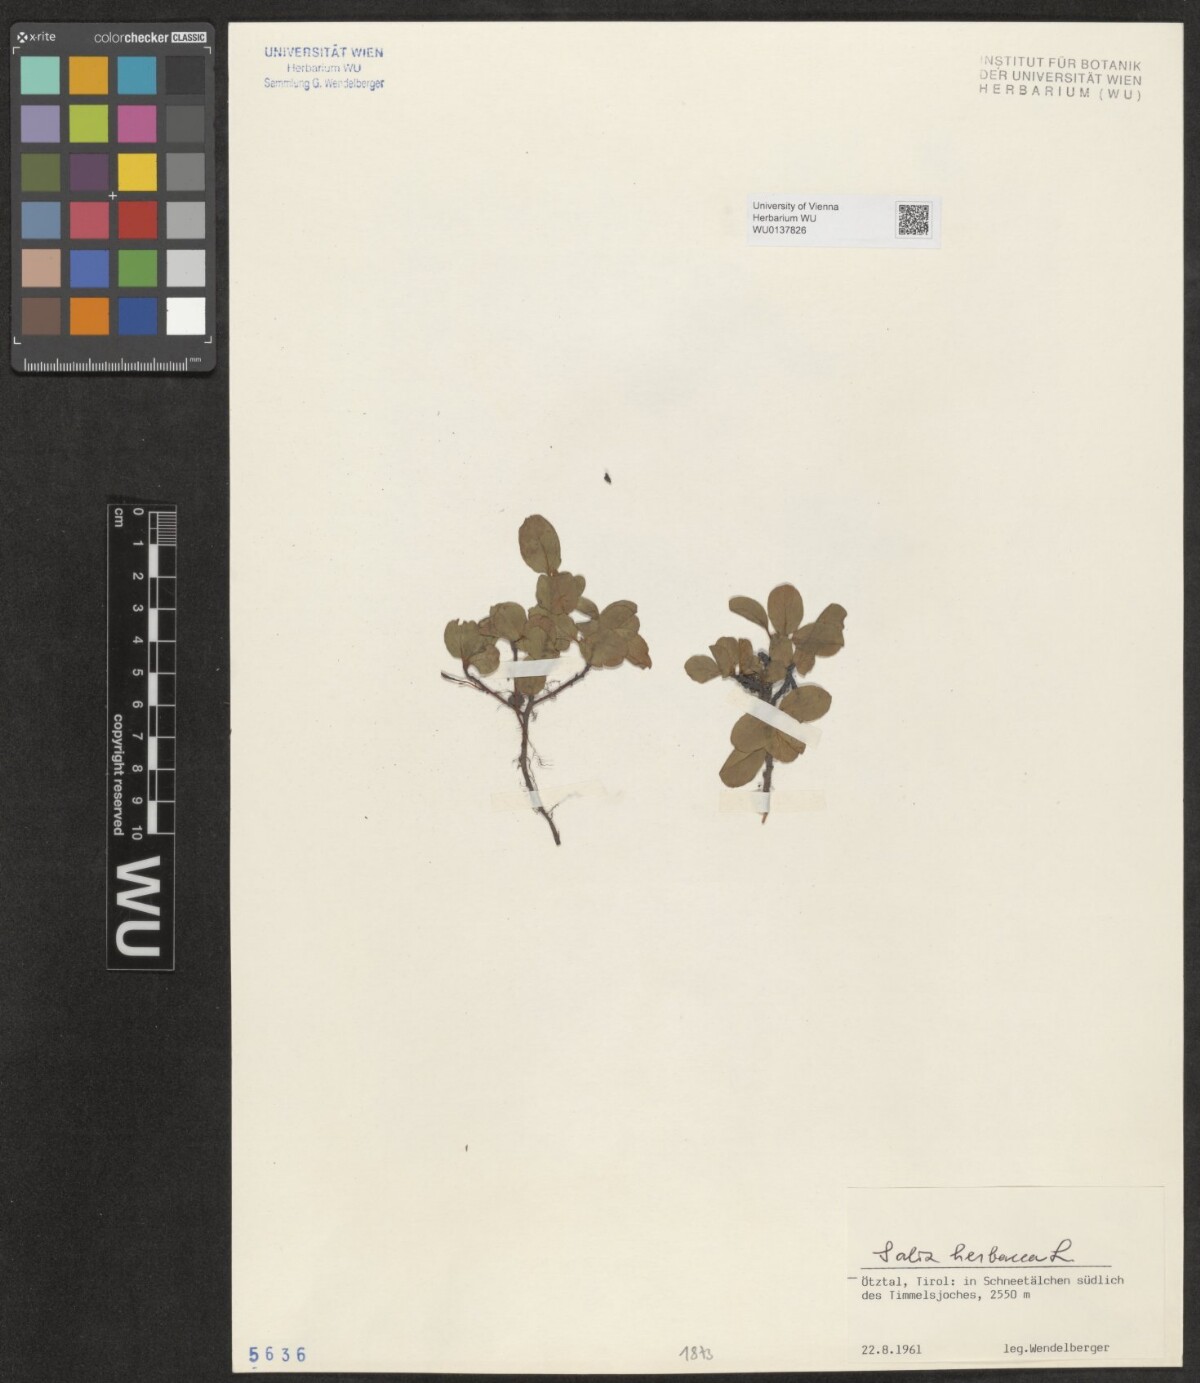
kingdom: Plantae
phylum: Tracheophyta
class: Magnoliopsida
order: Malpighiales
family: Salicaceae
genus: Salix
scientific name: Salix herbacea
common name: Dwarf willow
